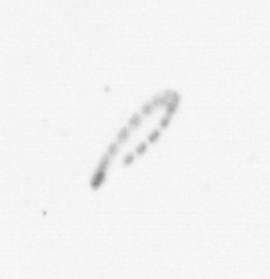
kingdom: Chromista
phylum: Ochrophyta
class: Bacillariophyceae
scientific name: Bacillariophyceae
